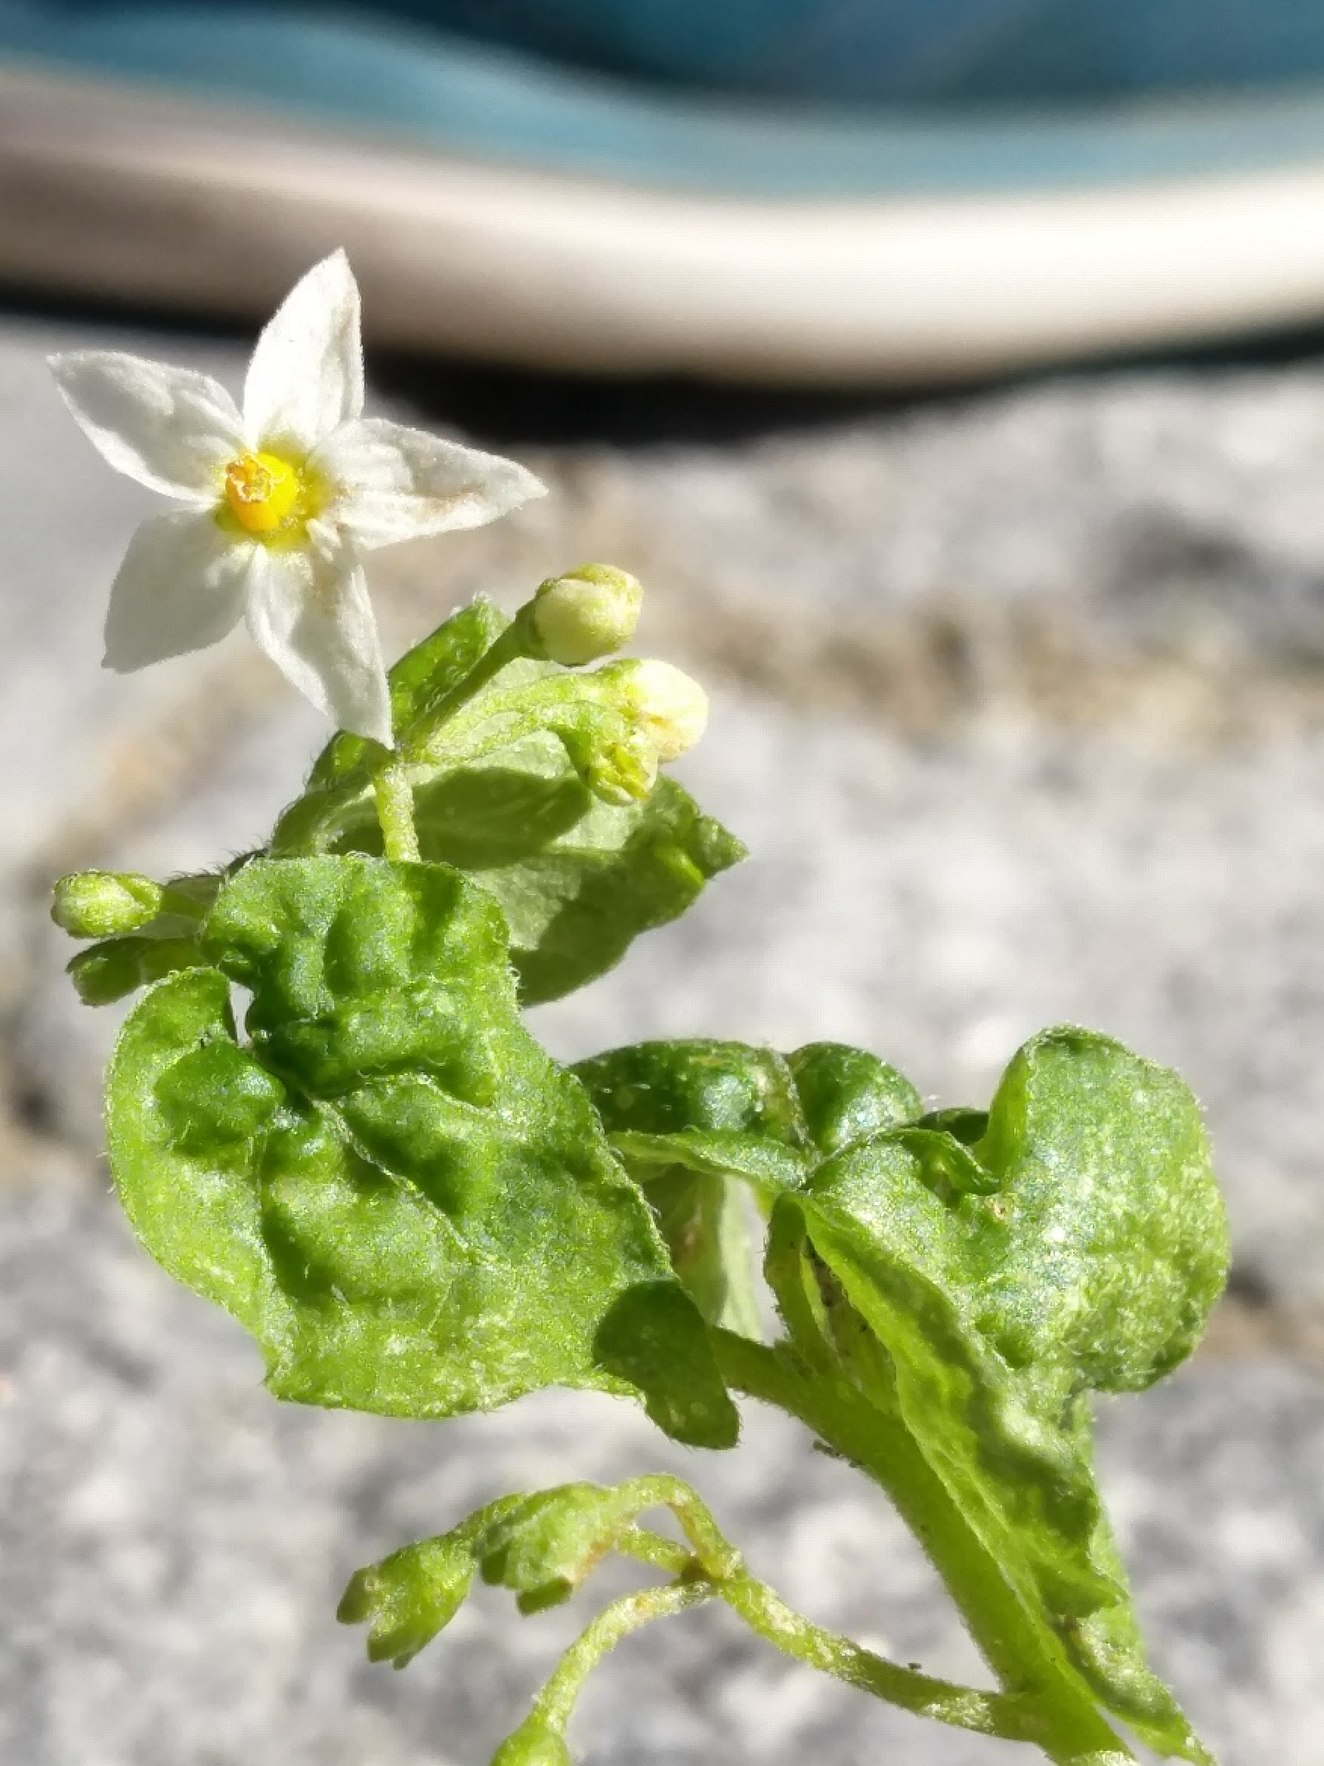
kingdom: Plantae
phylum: Tracheophyta
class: Magnoliopsida
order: Solanales
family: Solanaceae
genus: Solanum
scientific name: Solanum nigrum
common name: Sort natskygge (underart)
